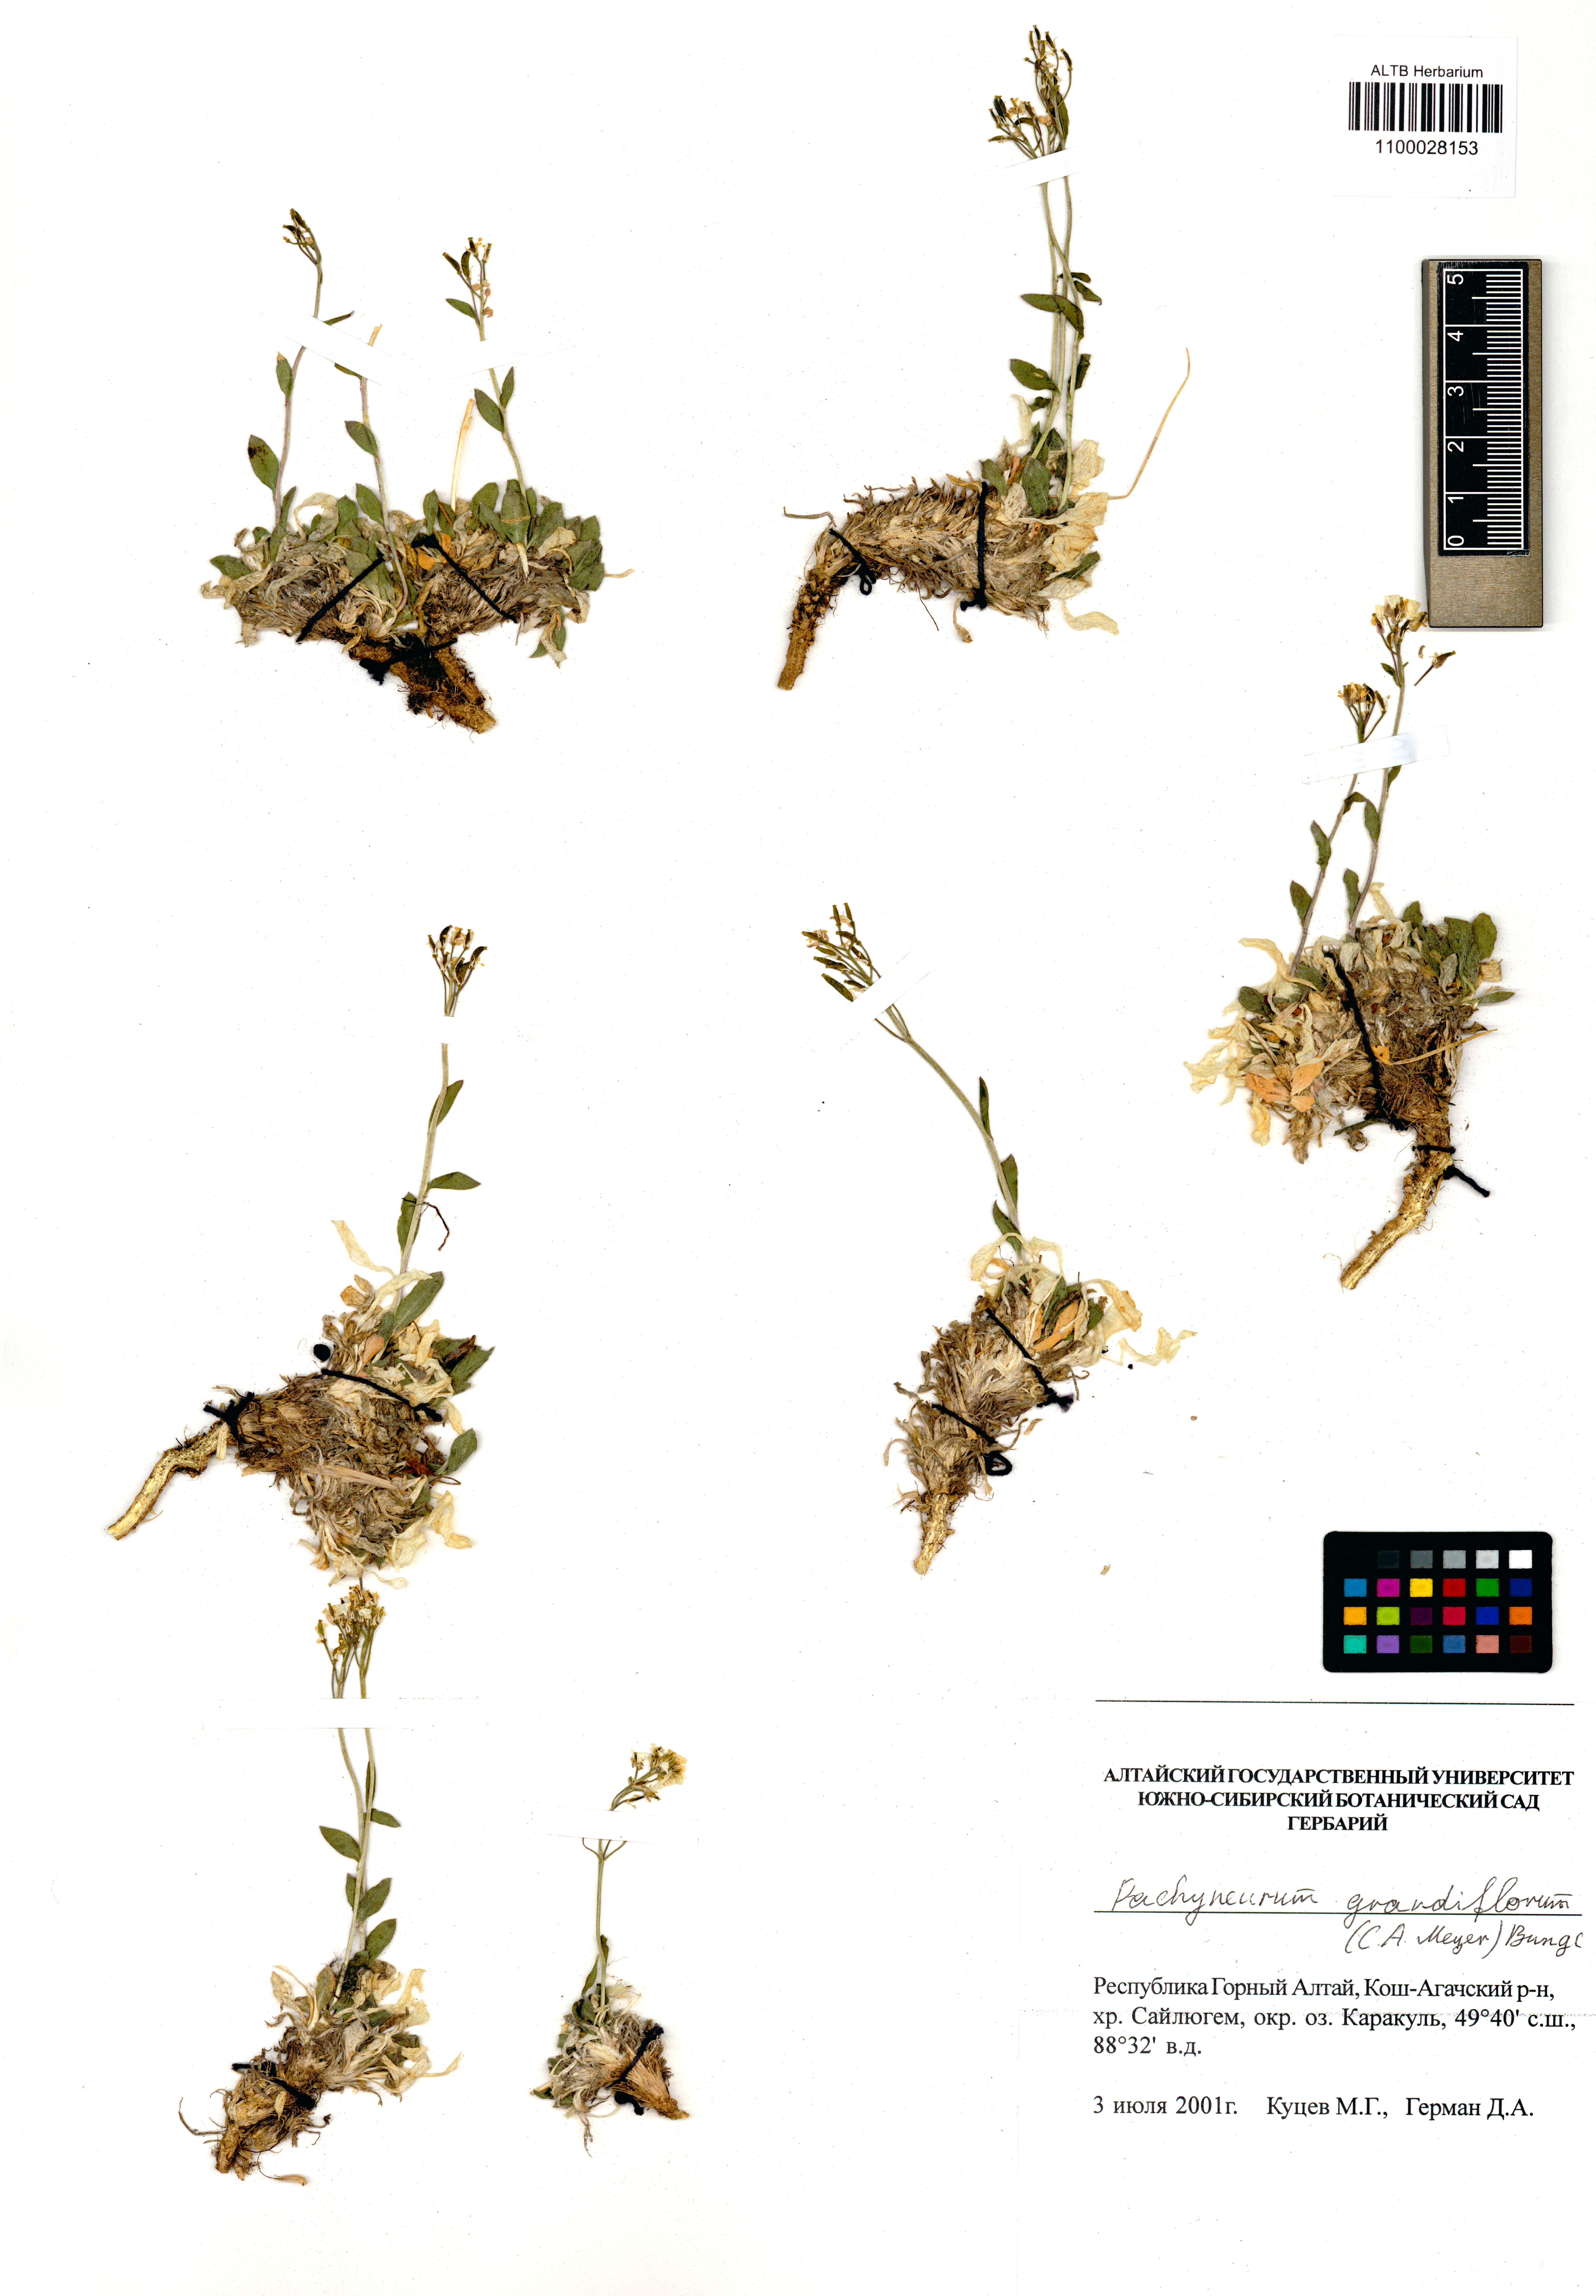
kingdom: Plantae
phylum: Tracheophyta
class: Magnoliopsida
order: Brassicales
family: Brassicaceae
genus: Pachyneurum
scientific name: Pachyneurum grandiflorum
